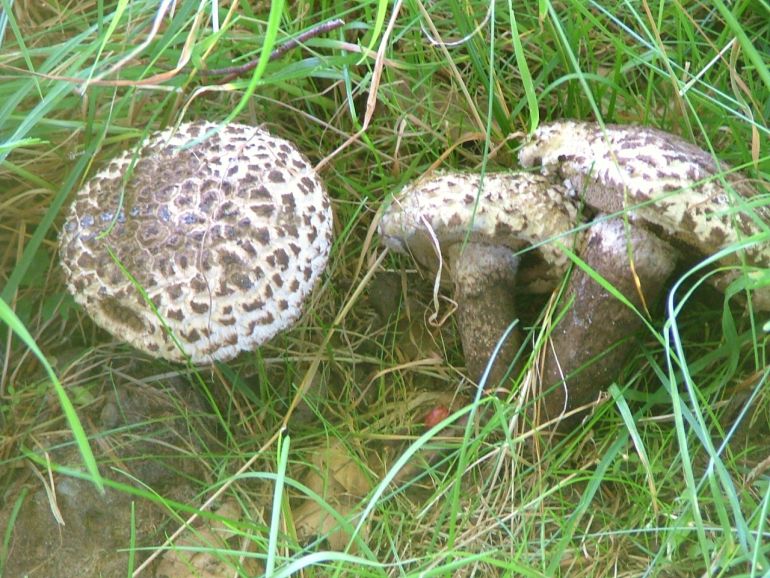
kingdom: Fungi
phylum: Basidiomycota
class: Agaricomycetes
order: Boletales
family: Boletaceae
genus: Strobilomyces
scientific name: Strobilomyces strobilaceus
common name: koglerørhat
